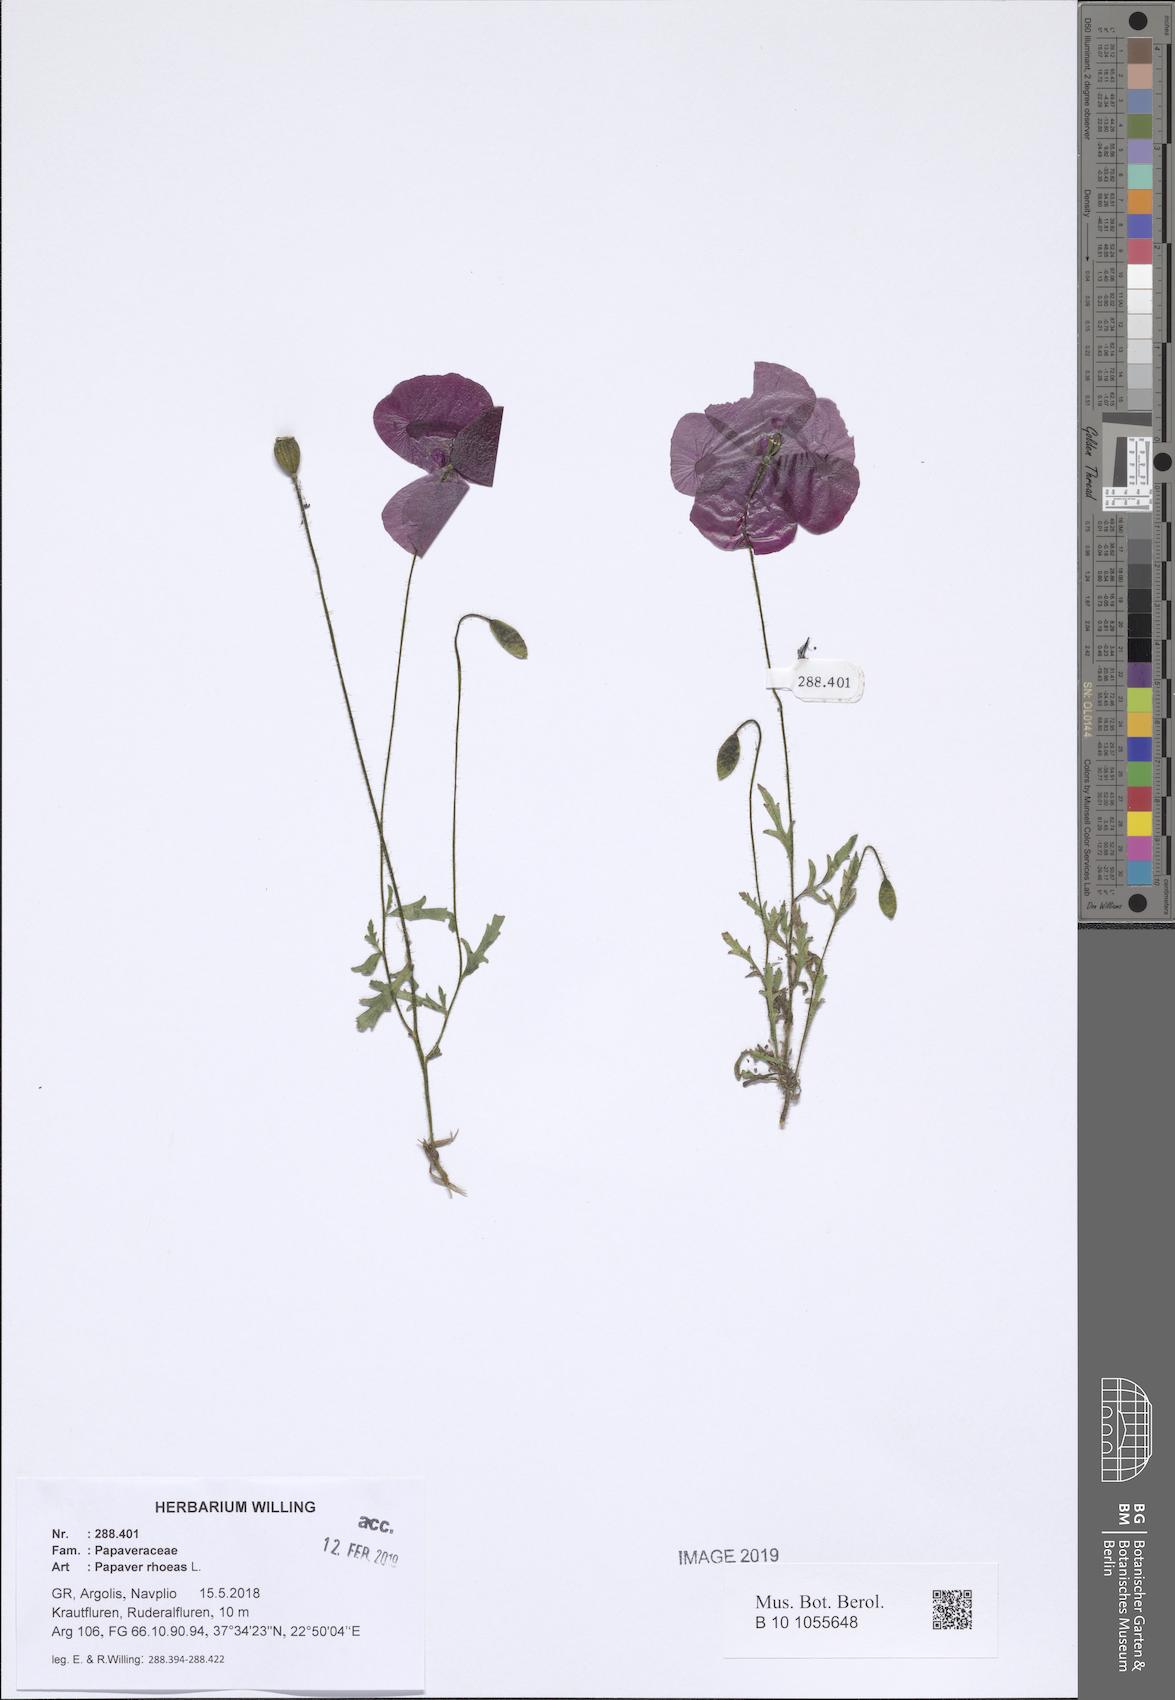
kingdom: Plantae
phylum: Tracheophyta
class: Magnoliopsida
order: Ranunculales
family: Papaveraceae
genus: Papaver
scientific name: Papaver rhoeas
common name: Corn poppy
